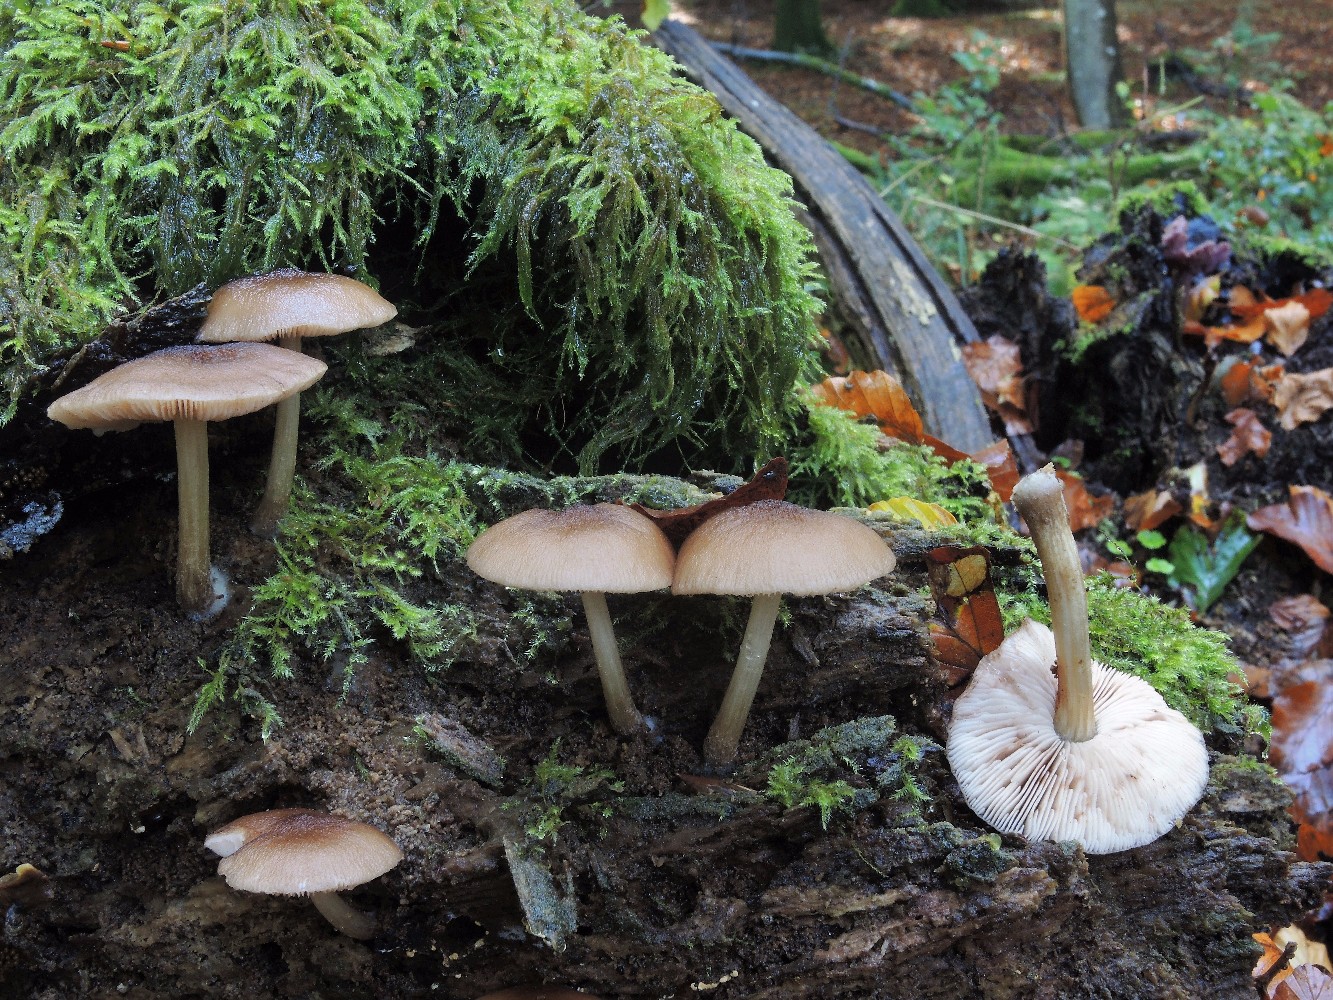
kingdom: Fungi
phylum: Basidiomycota
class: Agaricomycetes
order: Agaricales
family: Pluteaceae
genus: Pluteus
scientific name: Pluteus phlebophorus
